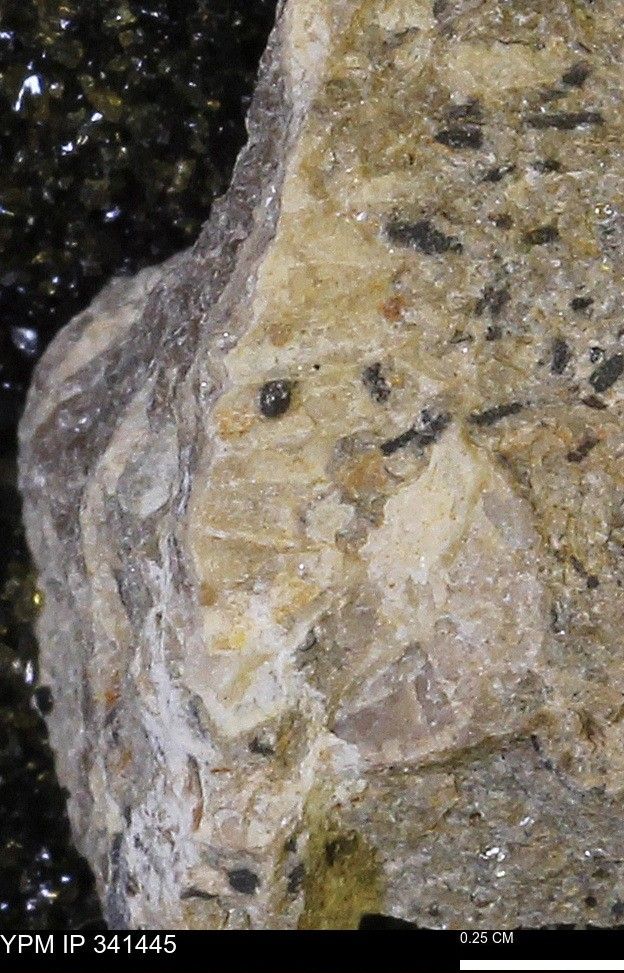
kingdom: Animalia
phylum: Mollusca
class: Cephalopoda
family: Scaphitidae
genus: Scaphites
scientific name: Scaphites
